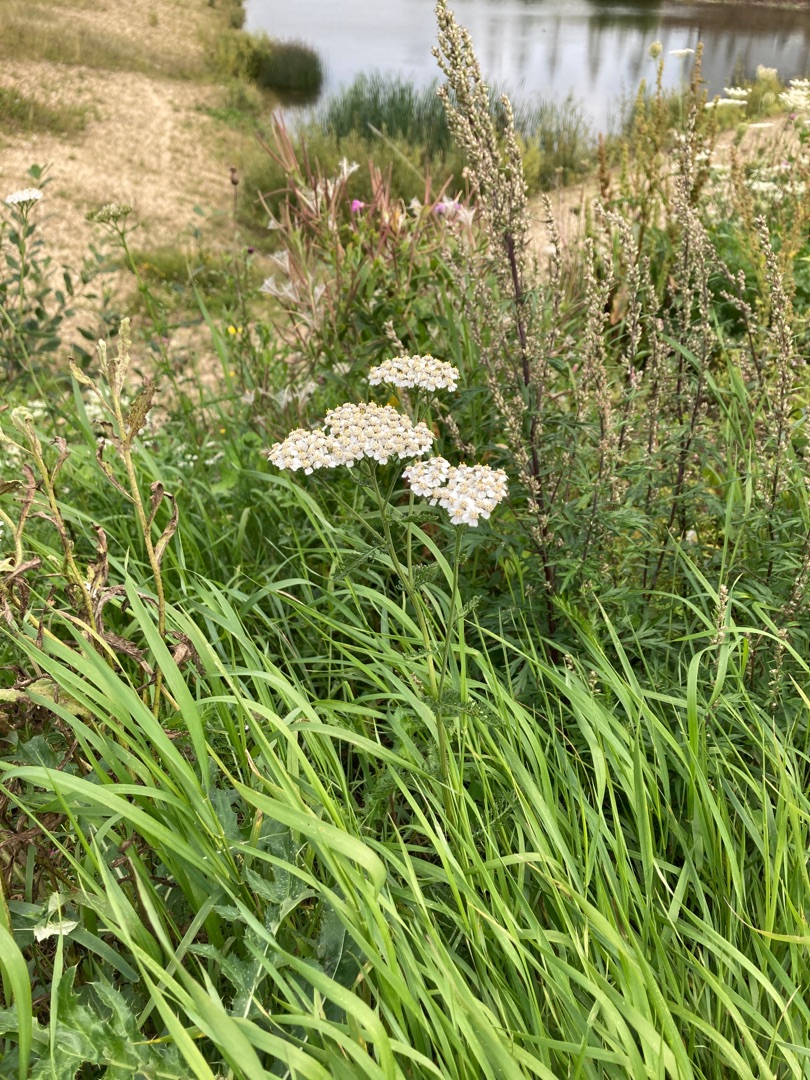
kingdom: Plantae
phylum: Tracheophyta
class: Magnoliopsida
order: Asterales
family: Asteraceae
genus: Achillea
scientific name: Achillea millefolium
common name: Almindelig røllike
